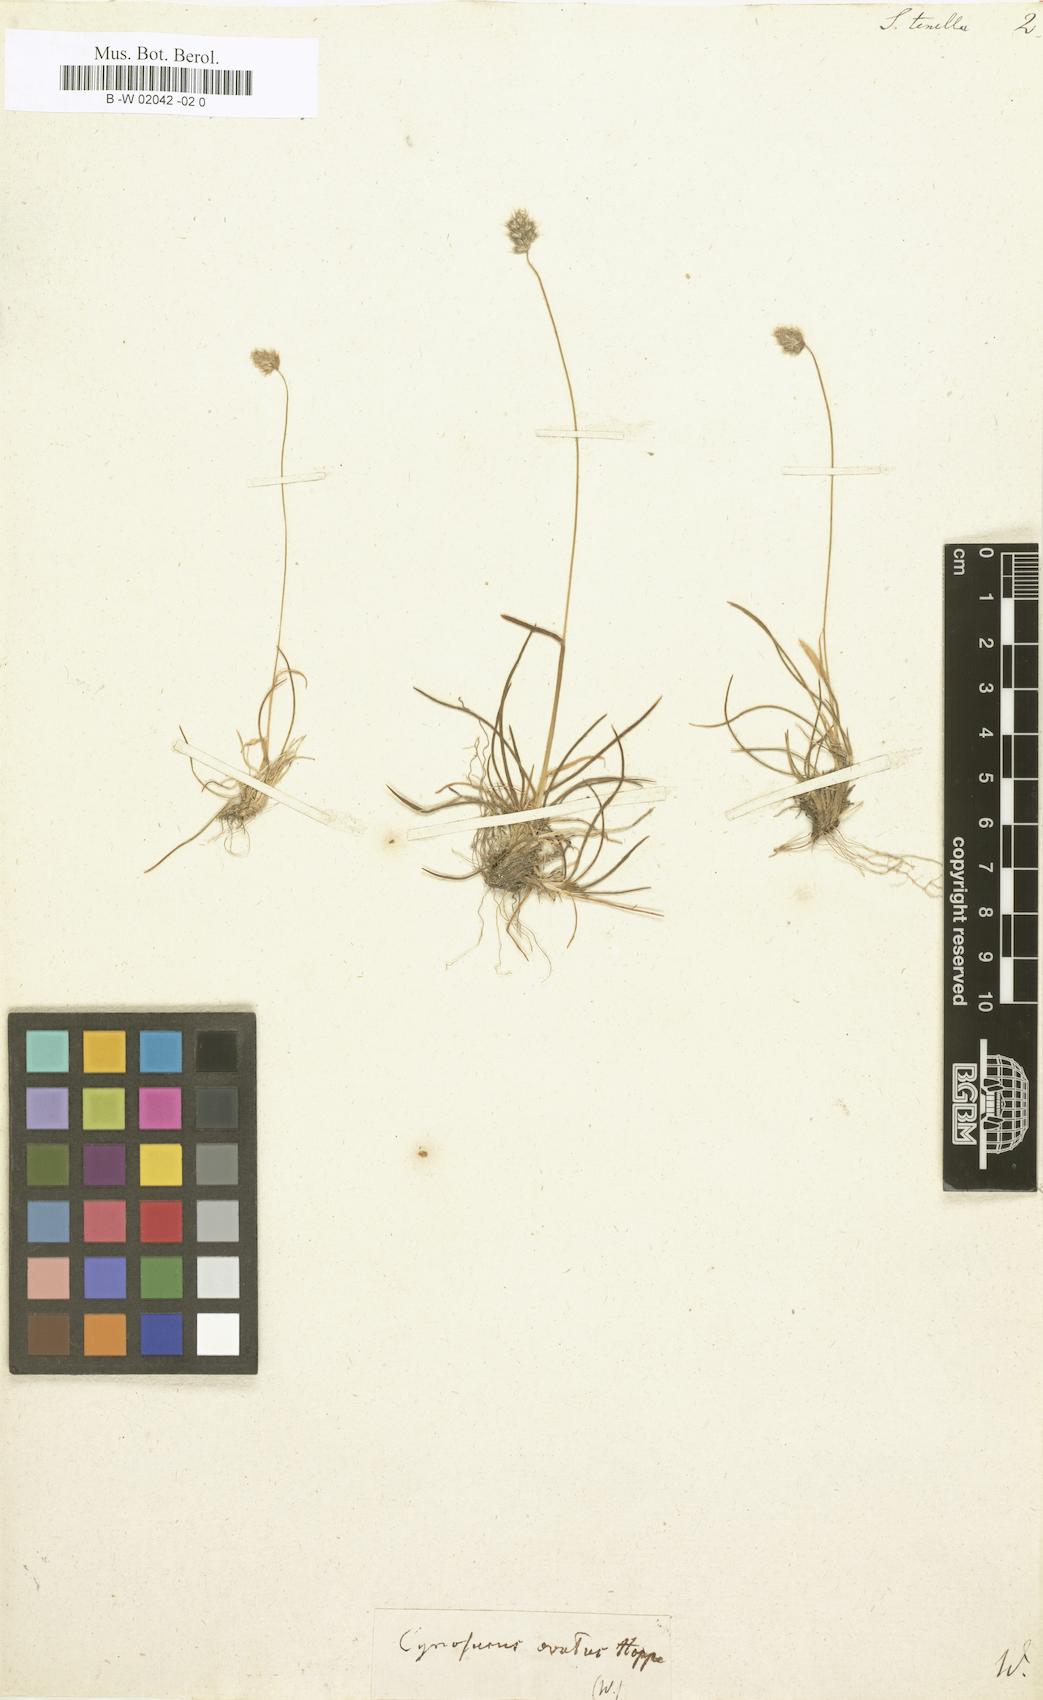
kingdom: Plantae
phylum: Tracheophyta
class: Liliopsida
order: Poales
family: Poaceae
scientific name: Poaceae
